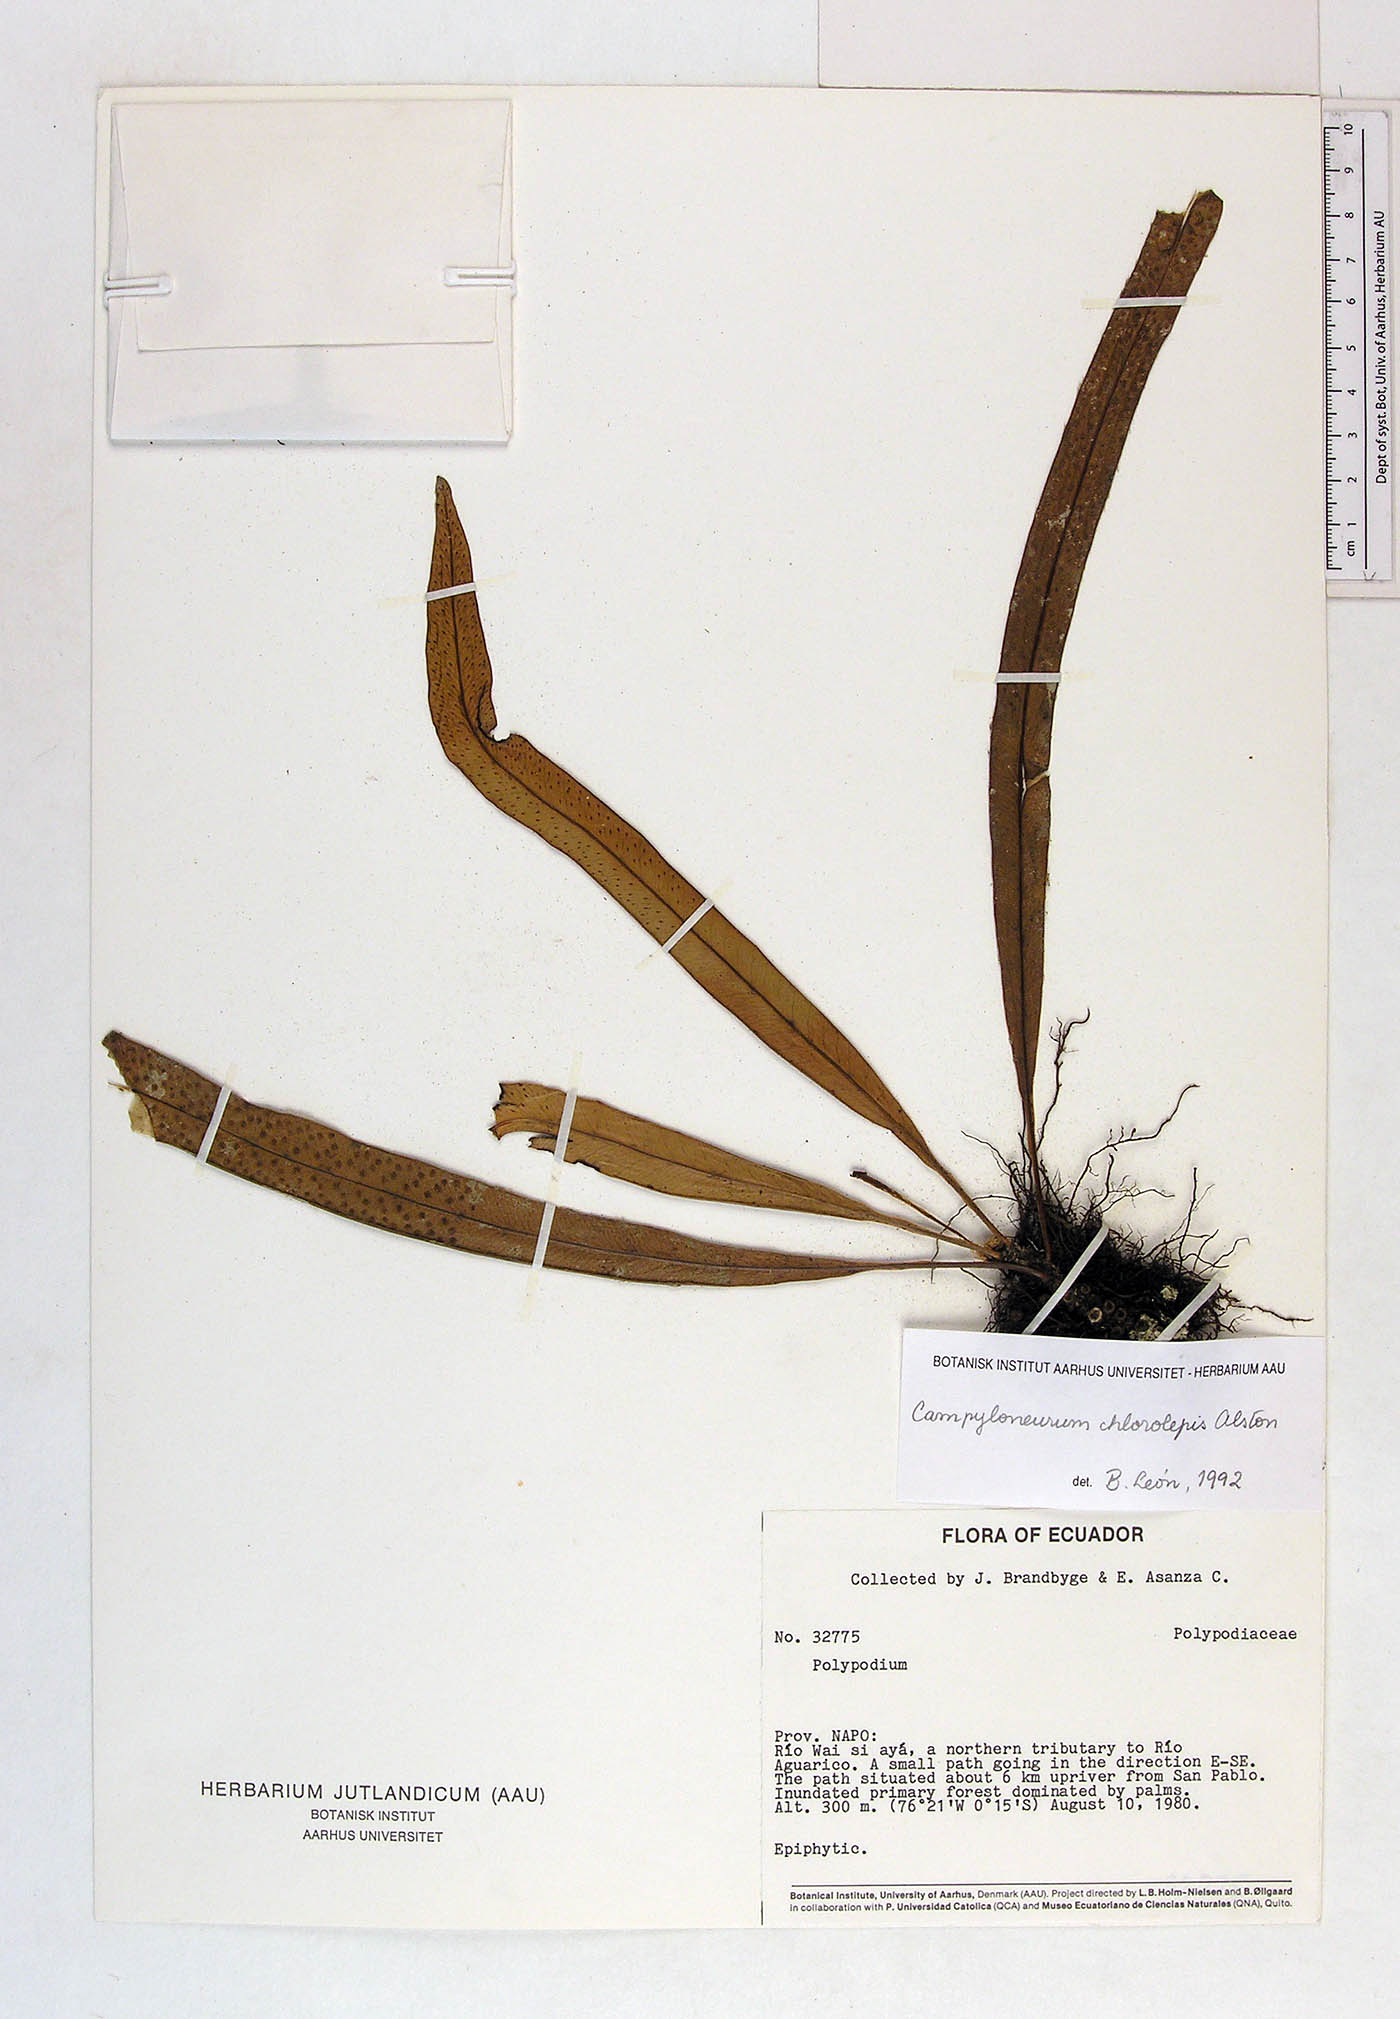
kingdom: Plantae
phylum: Tracheophyta
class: Polypodiopsida
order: Polypodiales
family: Polypodiaceae
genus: Campyloneurum
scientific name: Campyloneurum angustifolium
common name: Narrow-leaf strap fern
